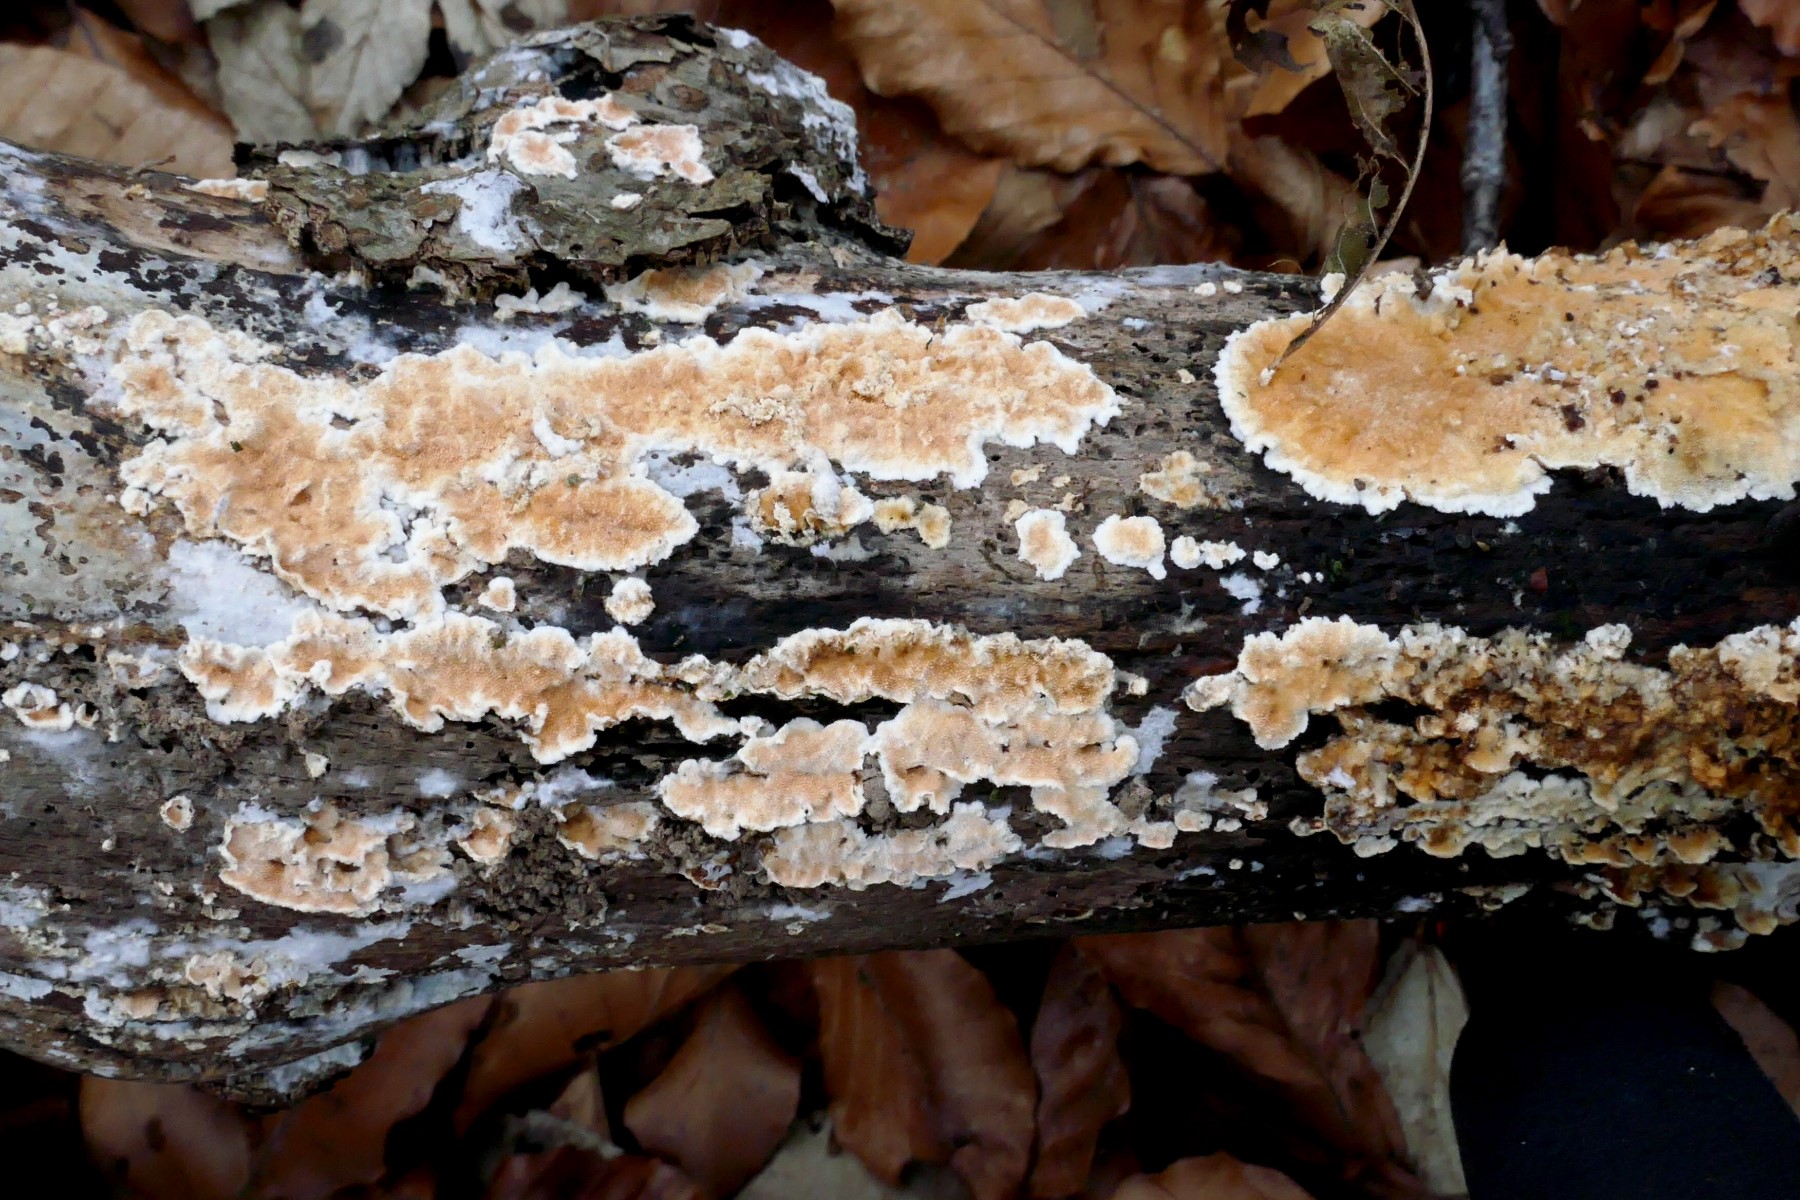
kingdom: Fungi
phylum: Basidiomycota
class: Agaricomycetes
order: Polyporales
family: Steccherinaceae
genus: Steccherinum
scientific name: Steccherinum ochraceum
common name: almindelig skønpig
